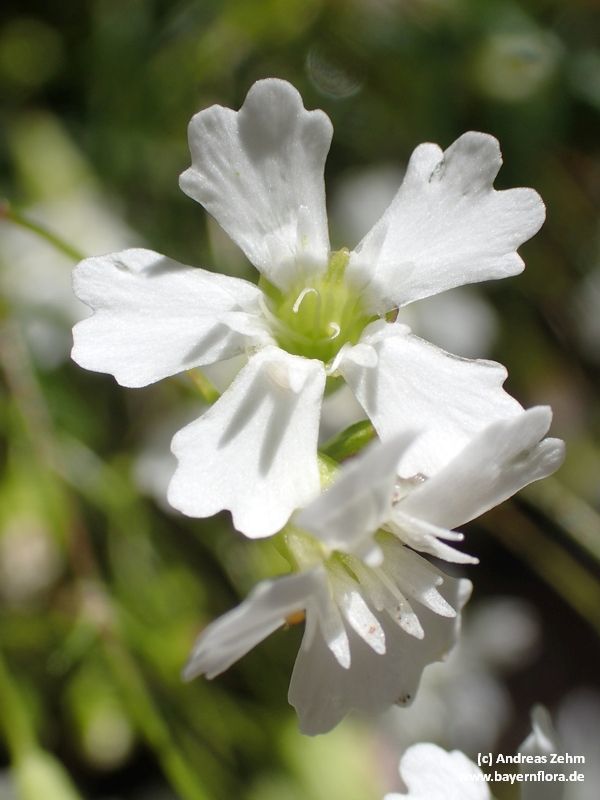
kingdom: Plantae
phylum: Tracheophyta
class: Magnoliopsida
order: Caryophyllales
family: Caryophyllaceae
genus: Heliosperma
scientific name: Heliosperma pusillum
